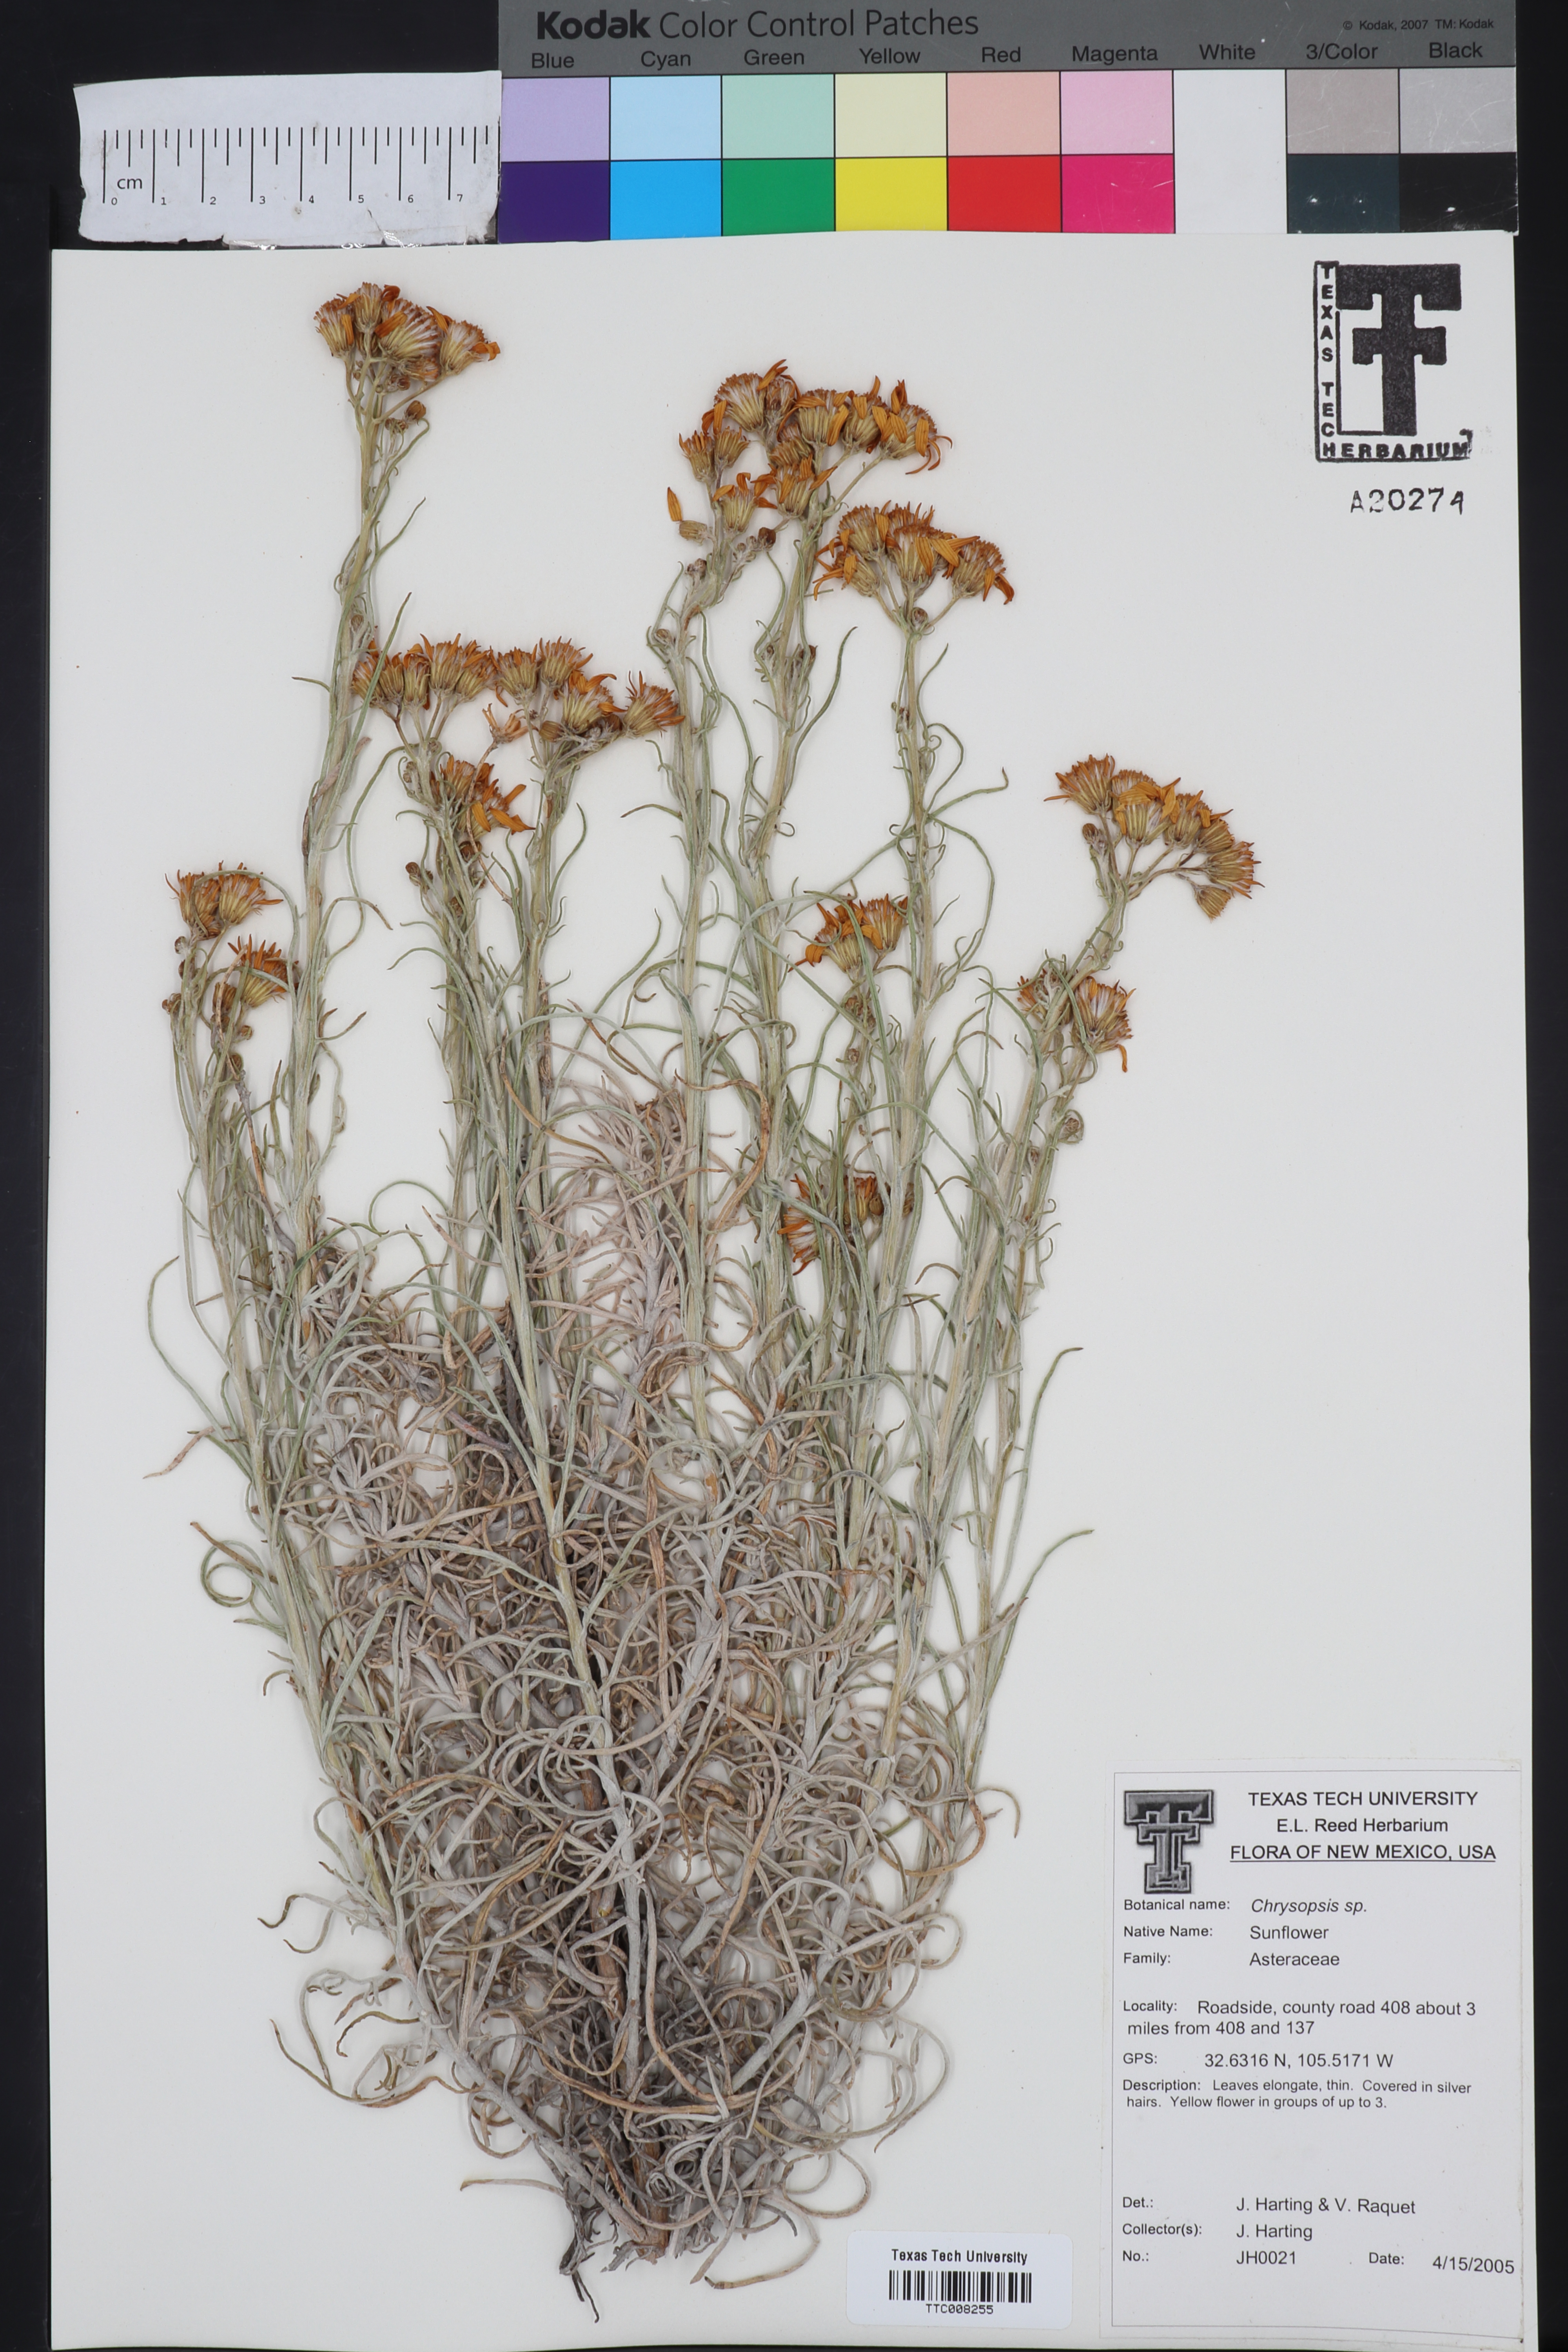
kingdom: Plantae
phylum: Tracheophyta
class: Magnoliopsida
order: Asterales
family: Asteraceae
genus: Chrysopsis
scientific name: Chrysopsis
